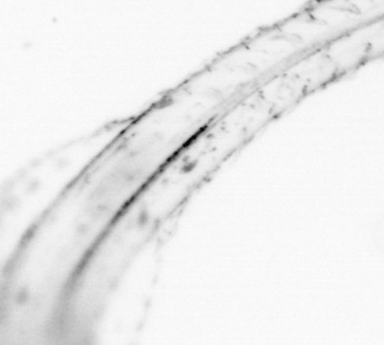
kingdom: Animalia
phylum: Chaetognatha
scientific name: Chaetognatha
